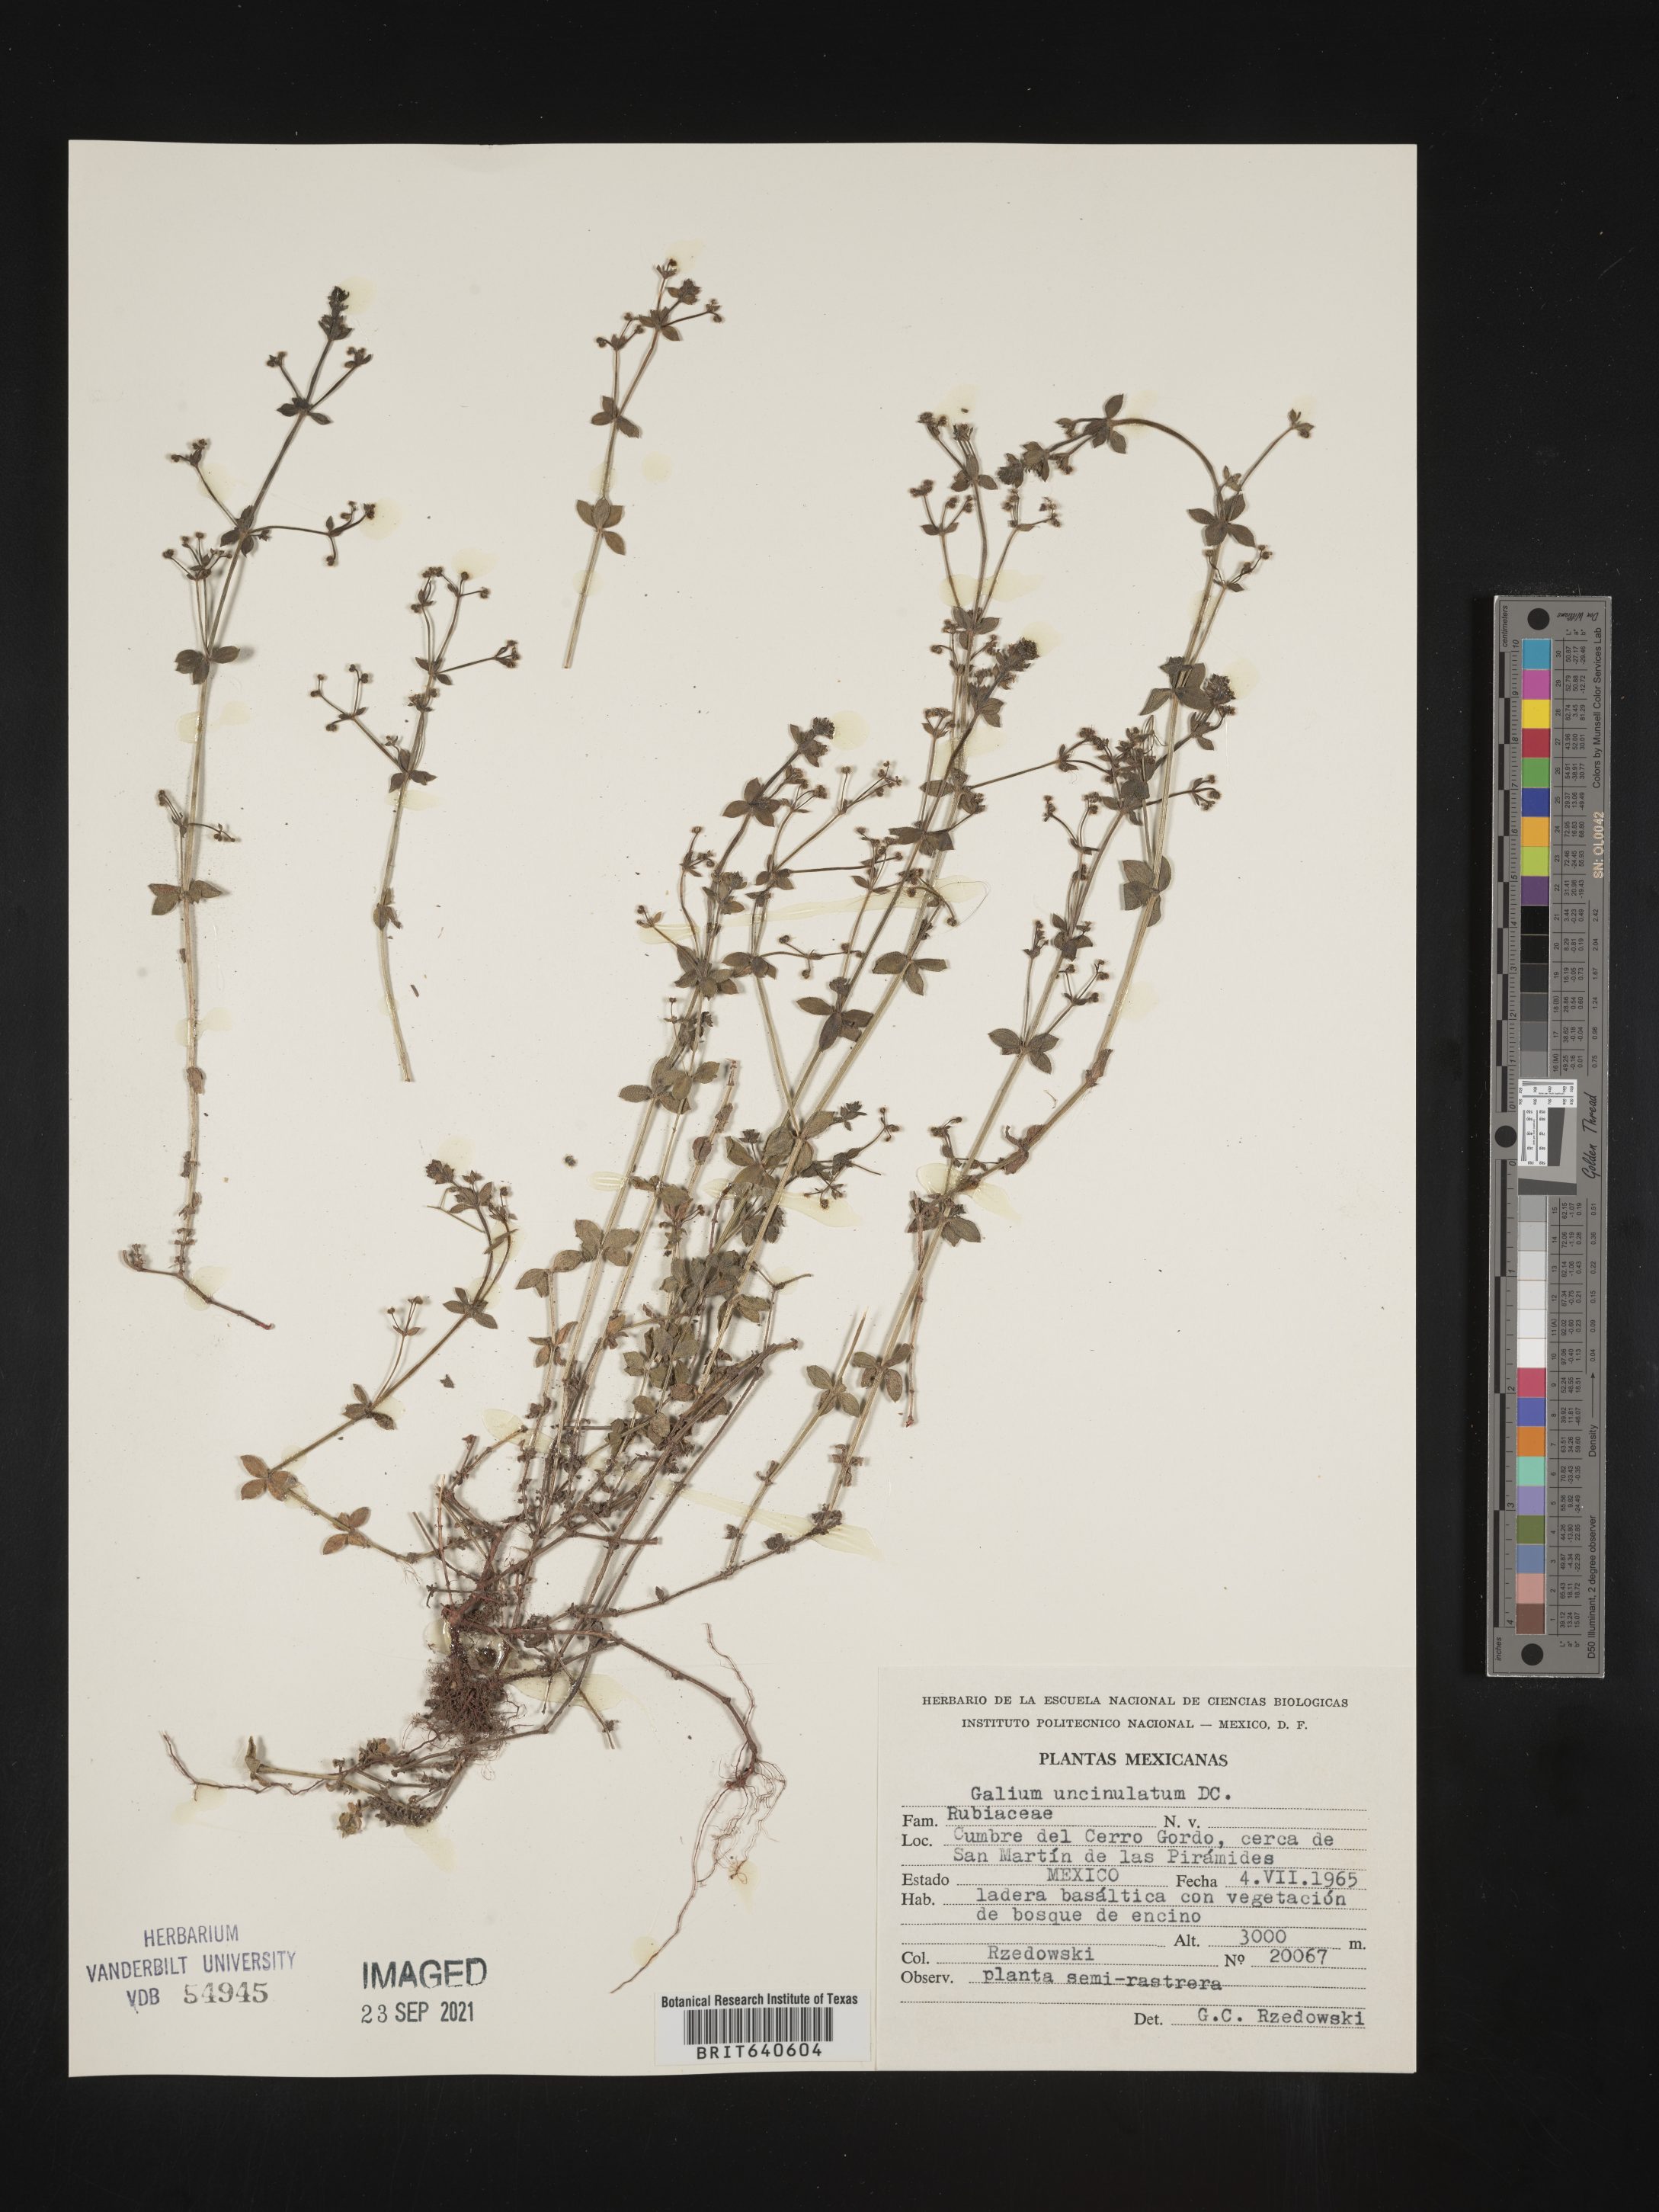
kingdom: Plantae
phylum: Tracheophyta
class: Magnoliopsida
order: Gentianales
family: Rubiaceae
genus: Galium
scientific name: Galium
